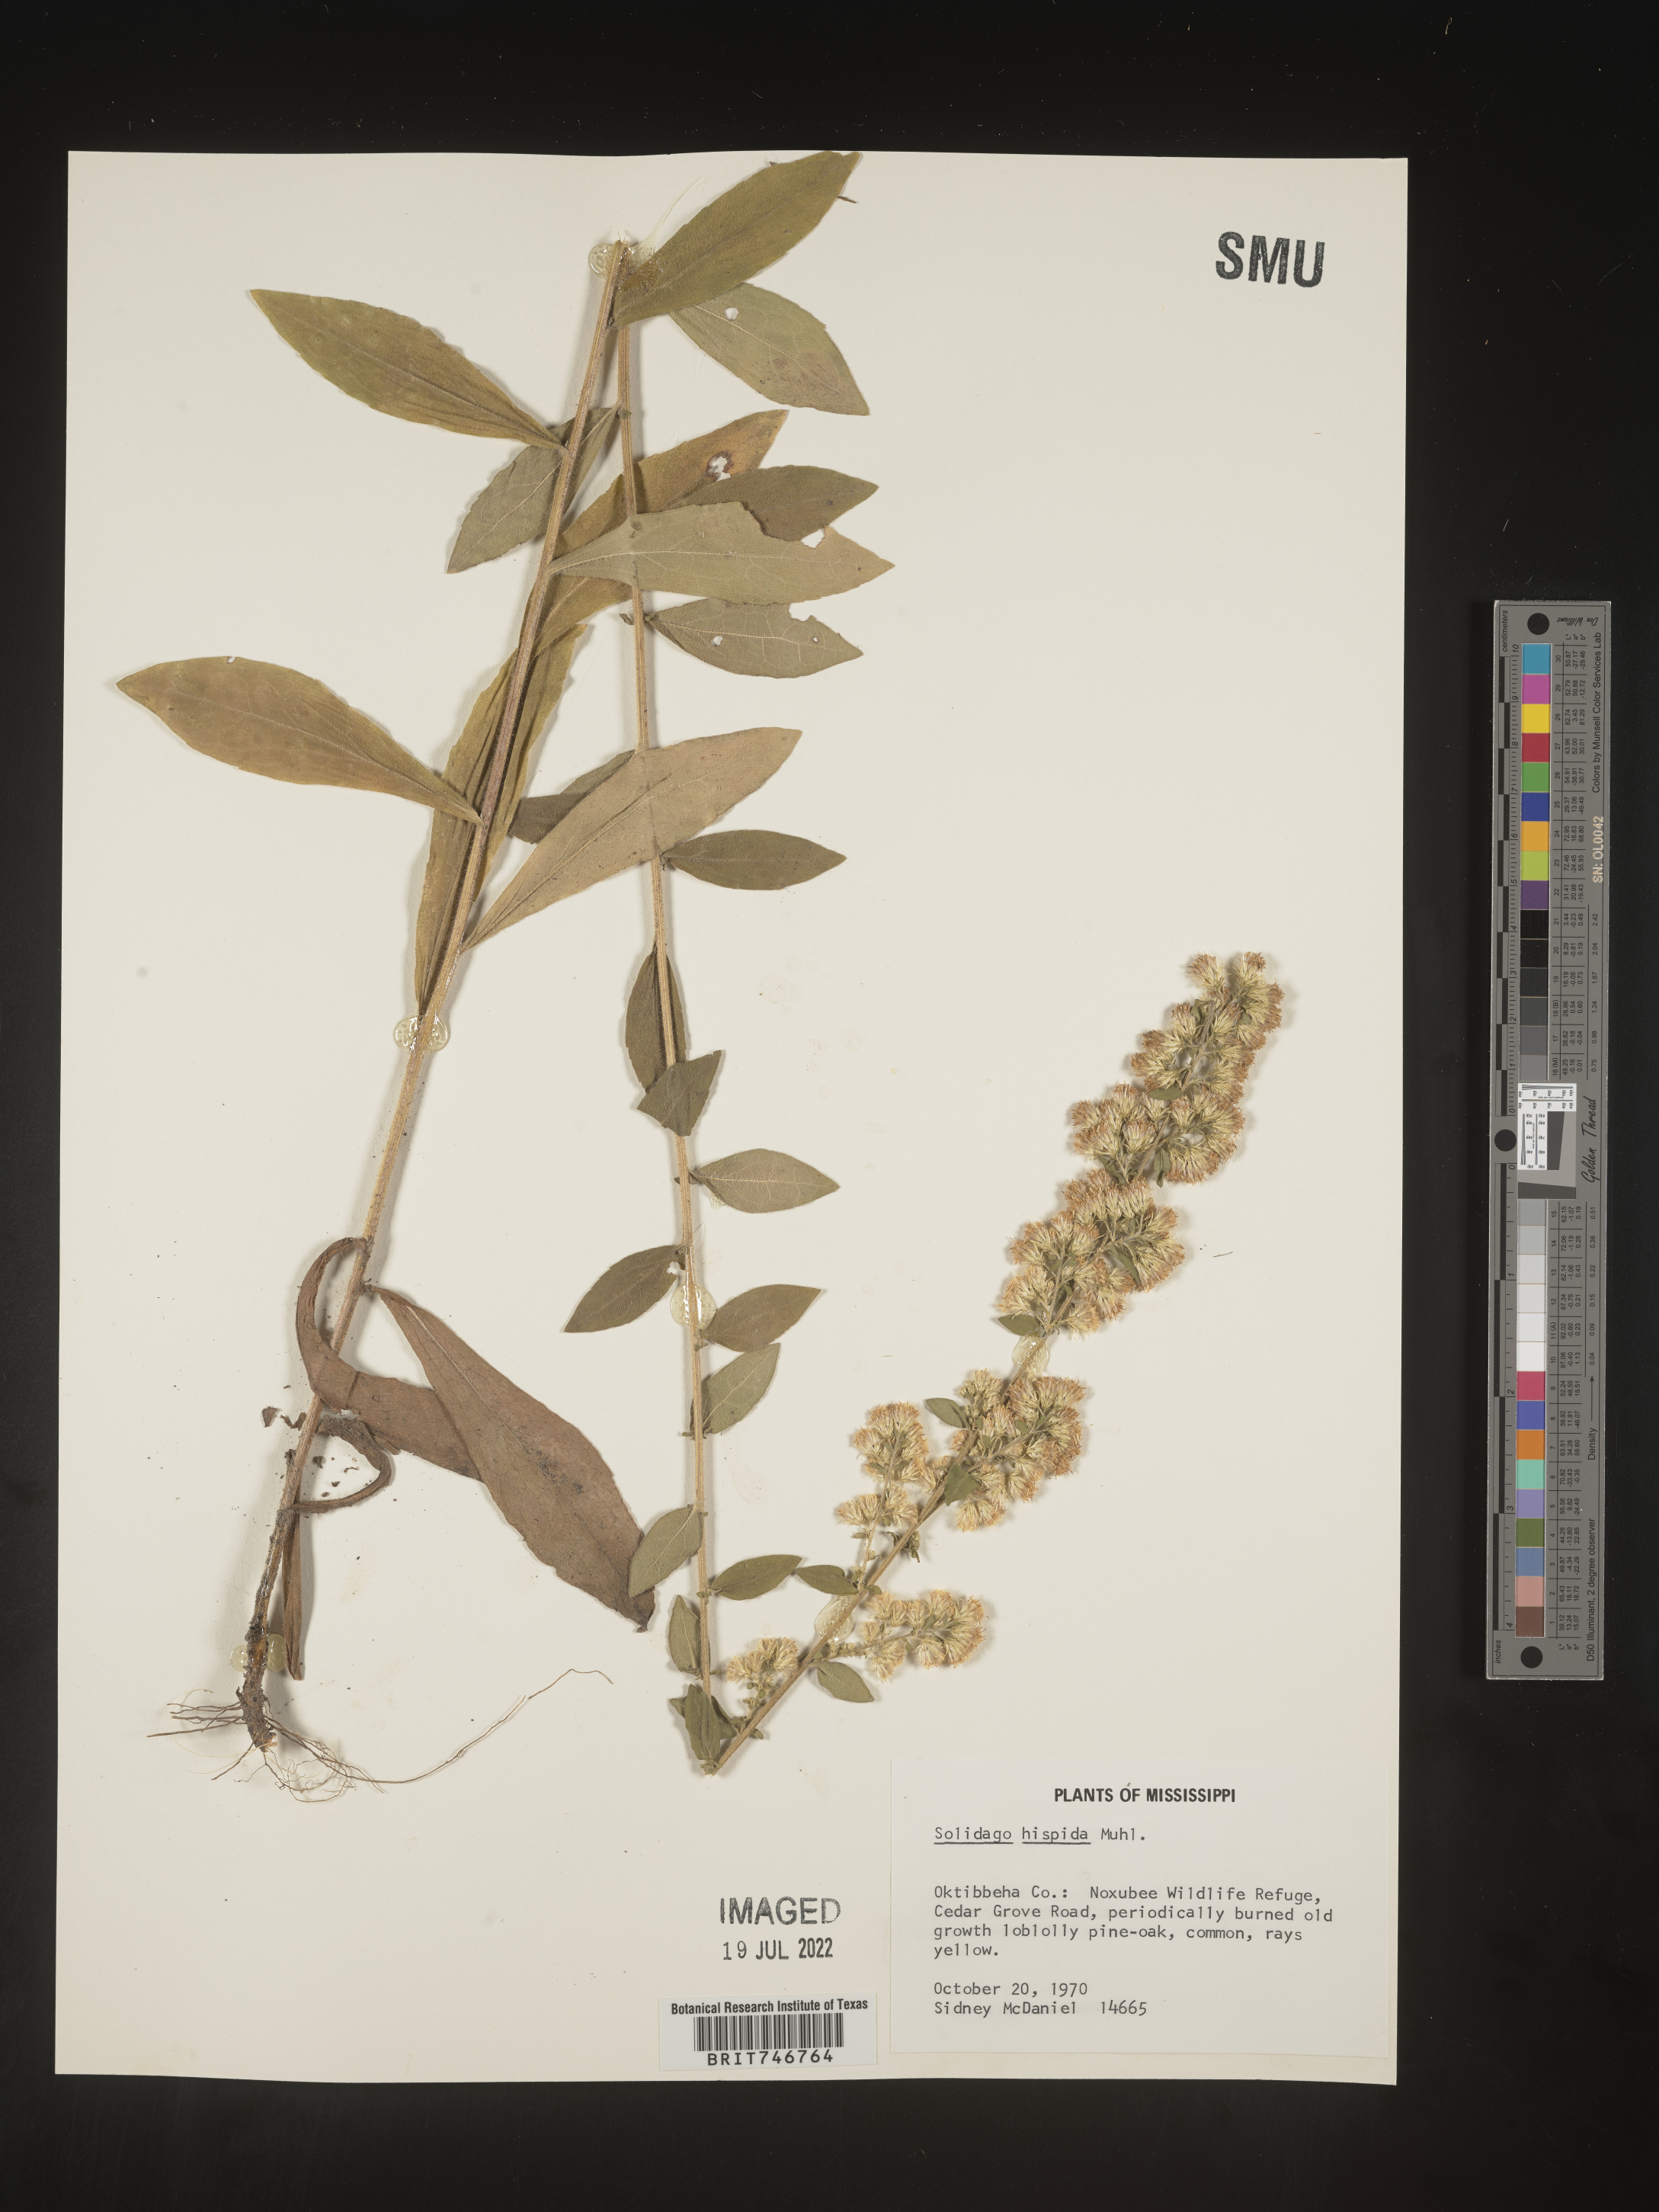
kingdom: Plantae
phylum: Tracheophyta
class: Magnoliopsida
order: Asterales
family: Asteraceae
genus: Solidago
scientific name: Solidago hispida
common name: Hairy goldenrod
